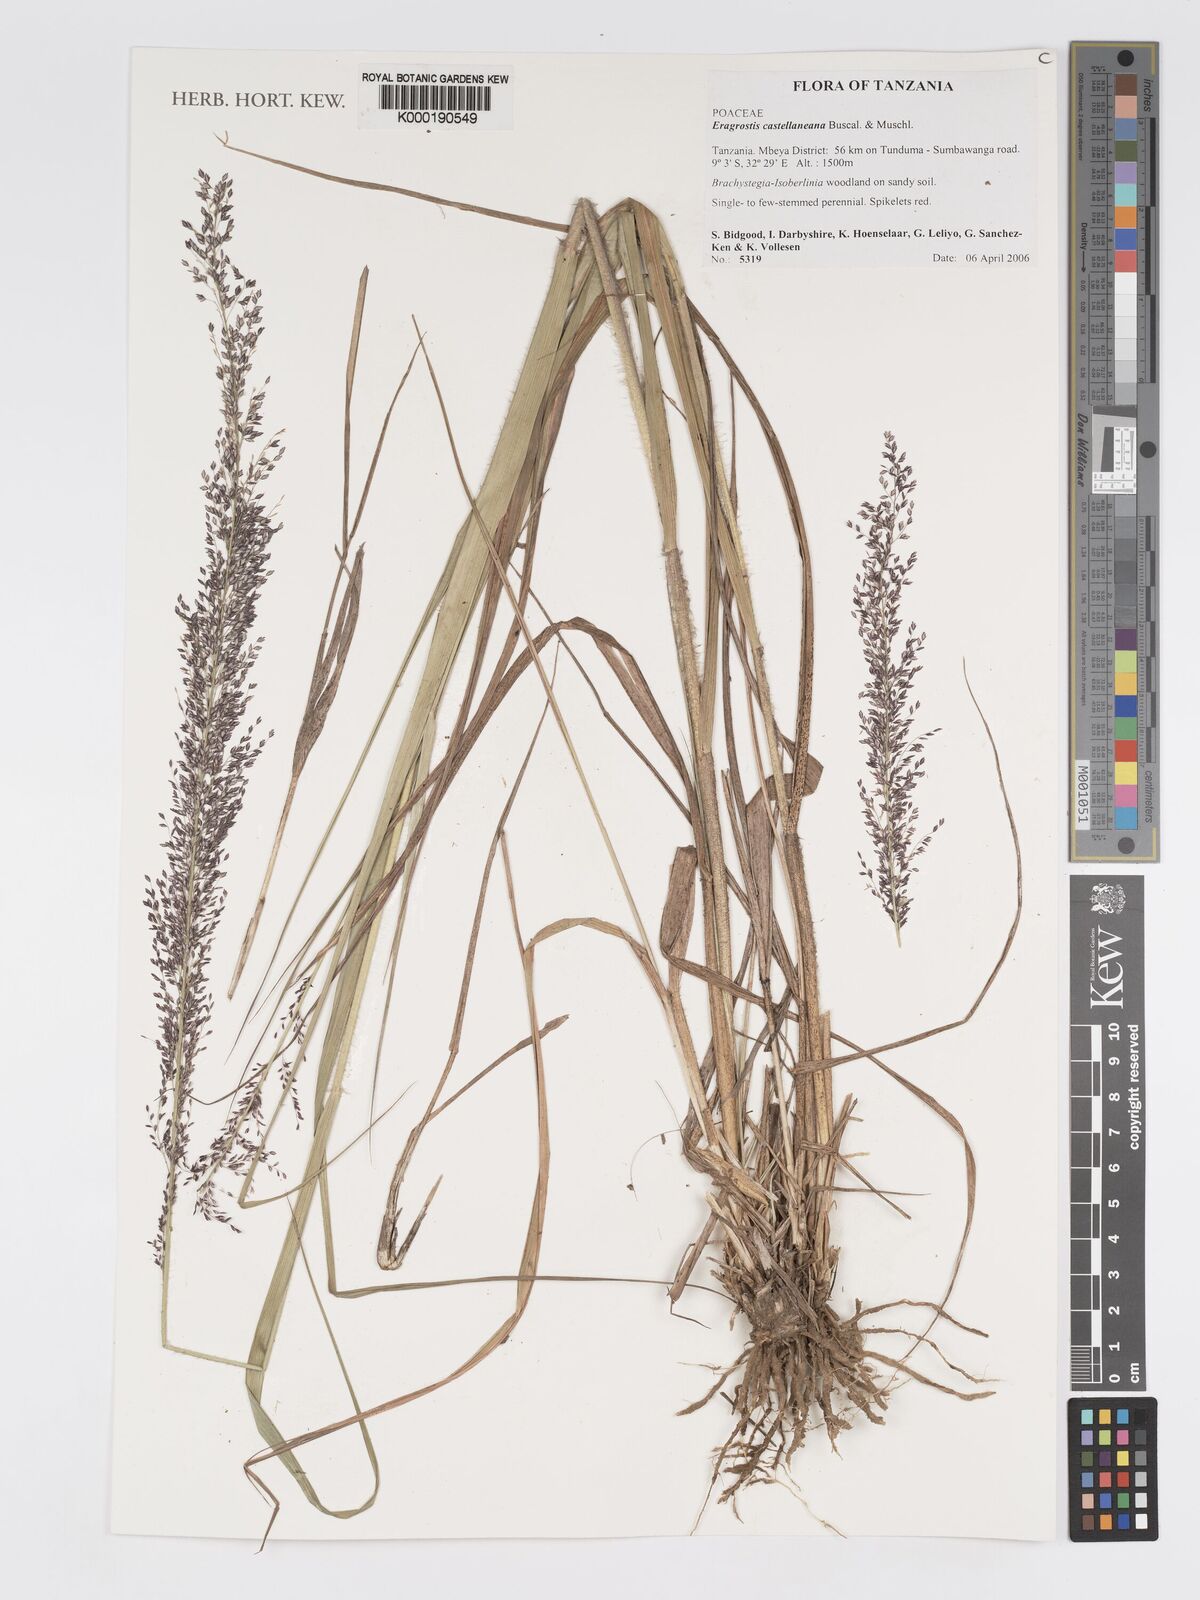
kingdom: Plantae
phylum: Tracheophyta
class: Liliopsida
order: Poales
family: Poaceae
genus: Eragrostis
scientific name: Eragrostis castellaneana
